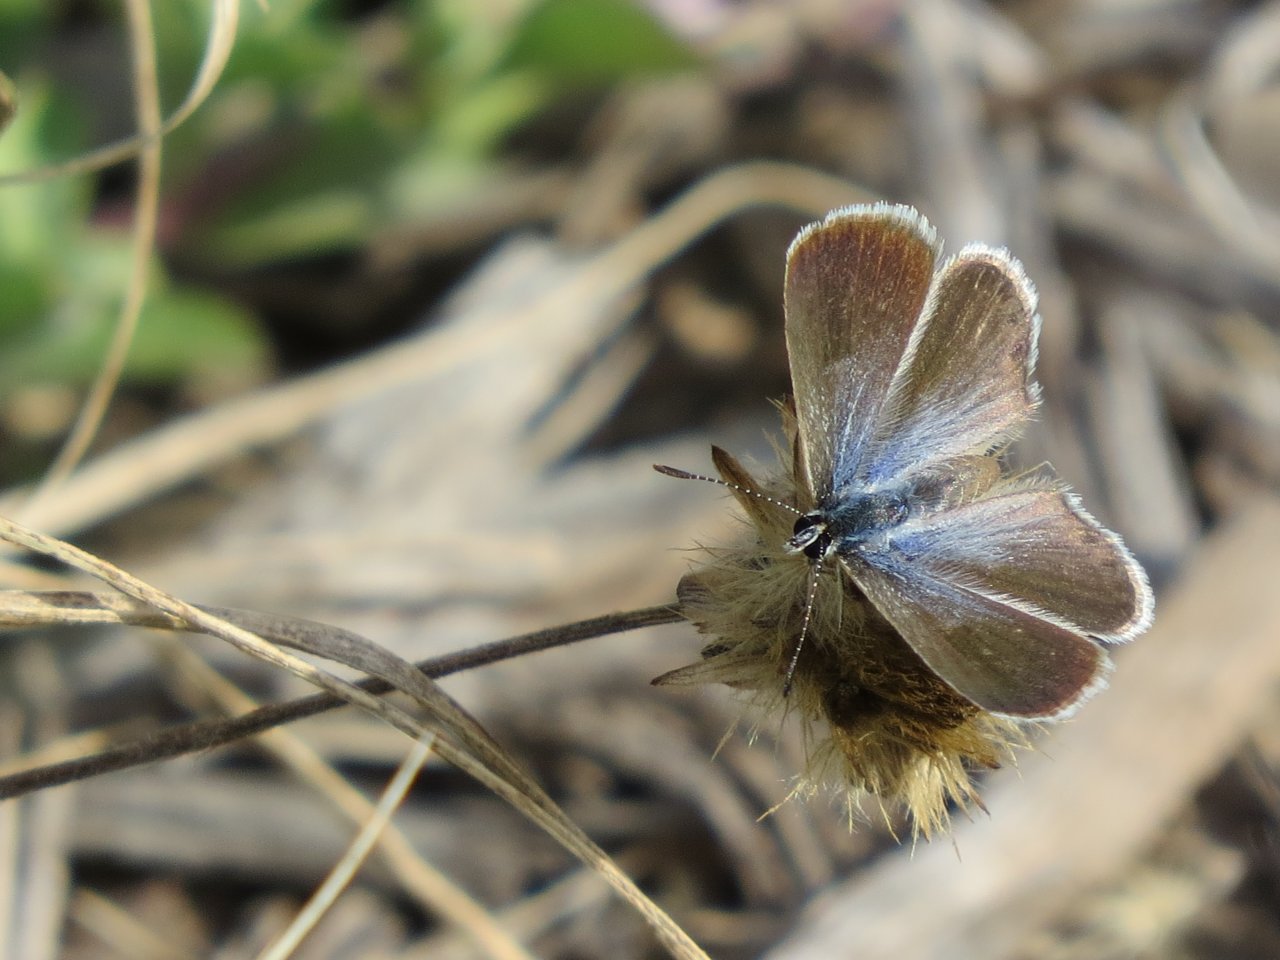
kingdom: Animalia
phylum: Arthropoda
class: Insecta
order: Lepidoptera
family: Lycaenidae
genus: Hemiargus
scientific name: Hemiargus ceraunus
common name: Ceraunus Blue
